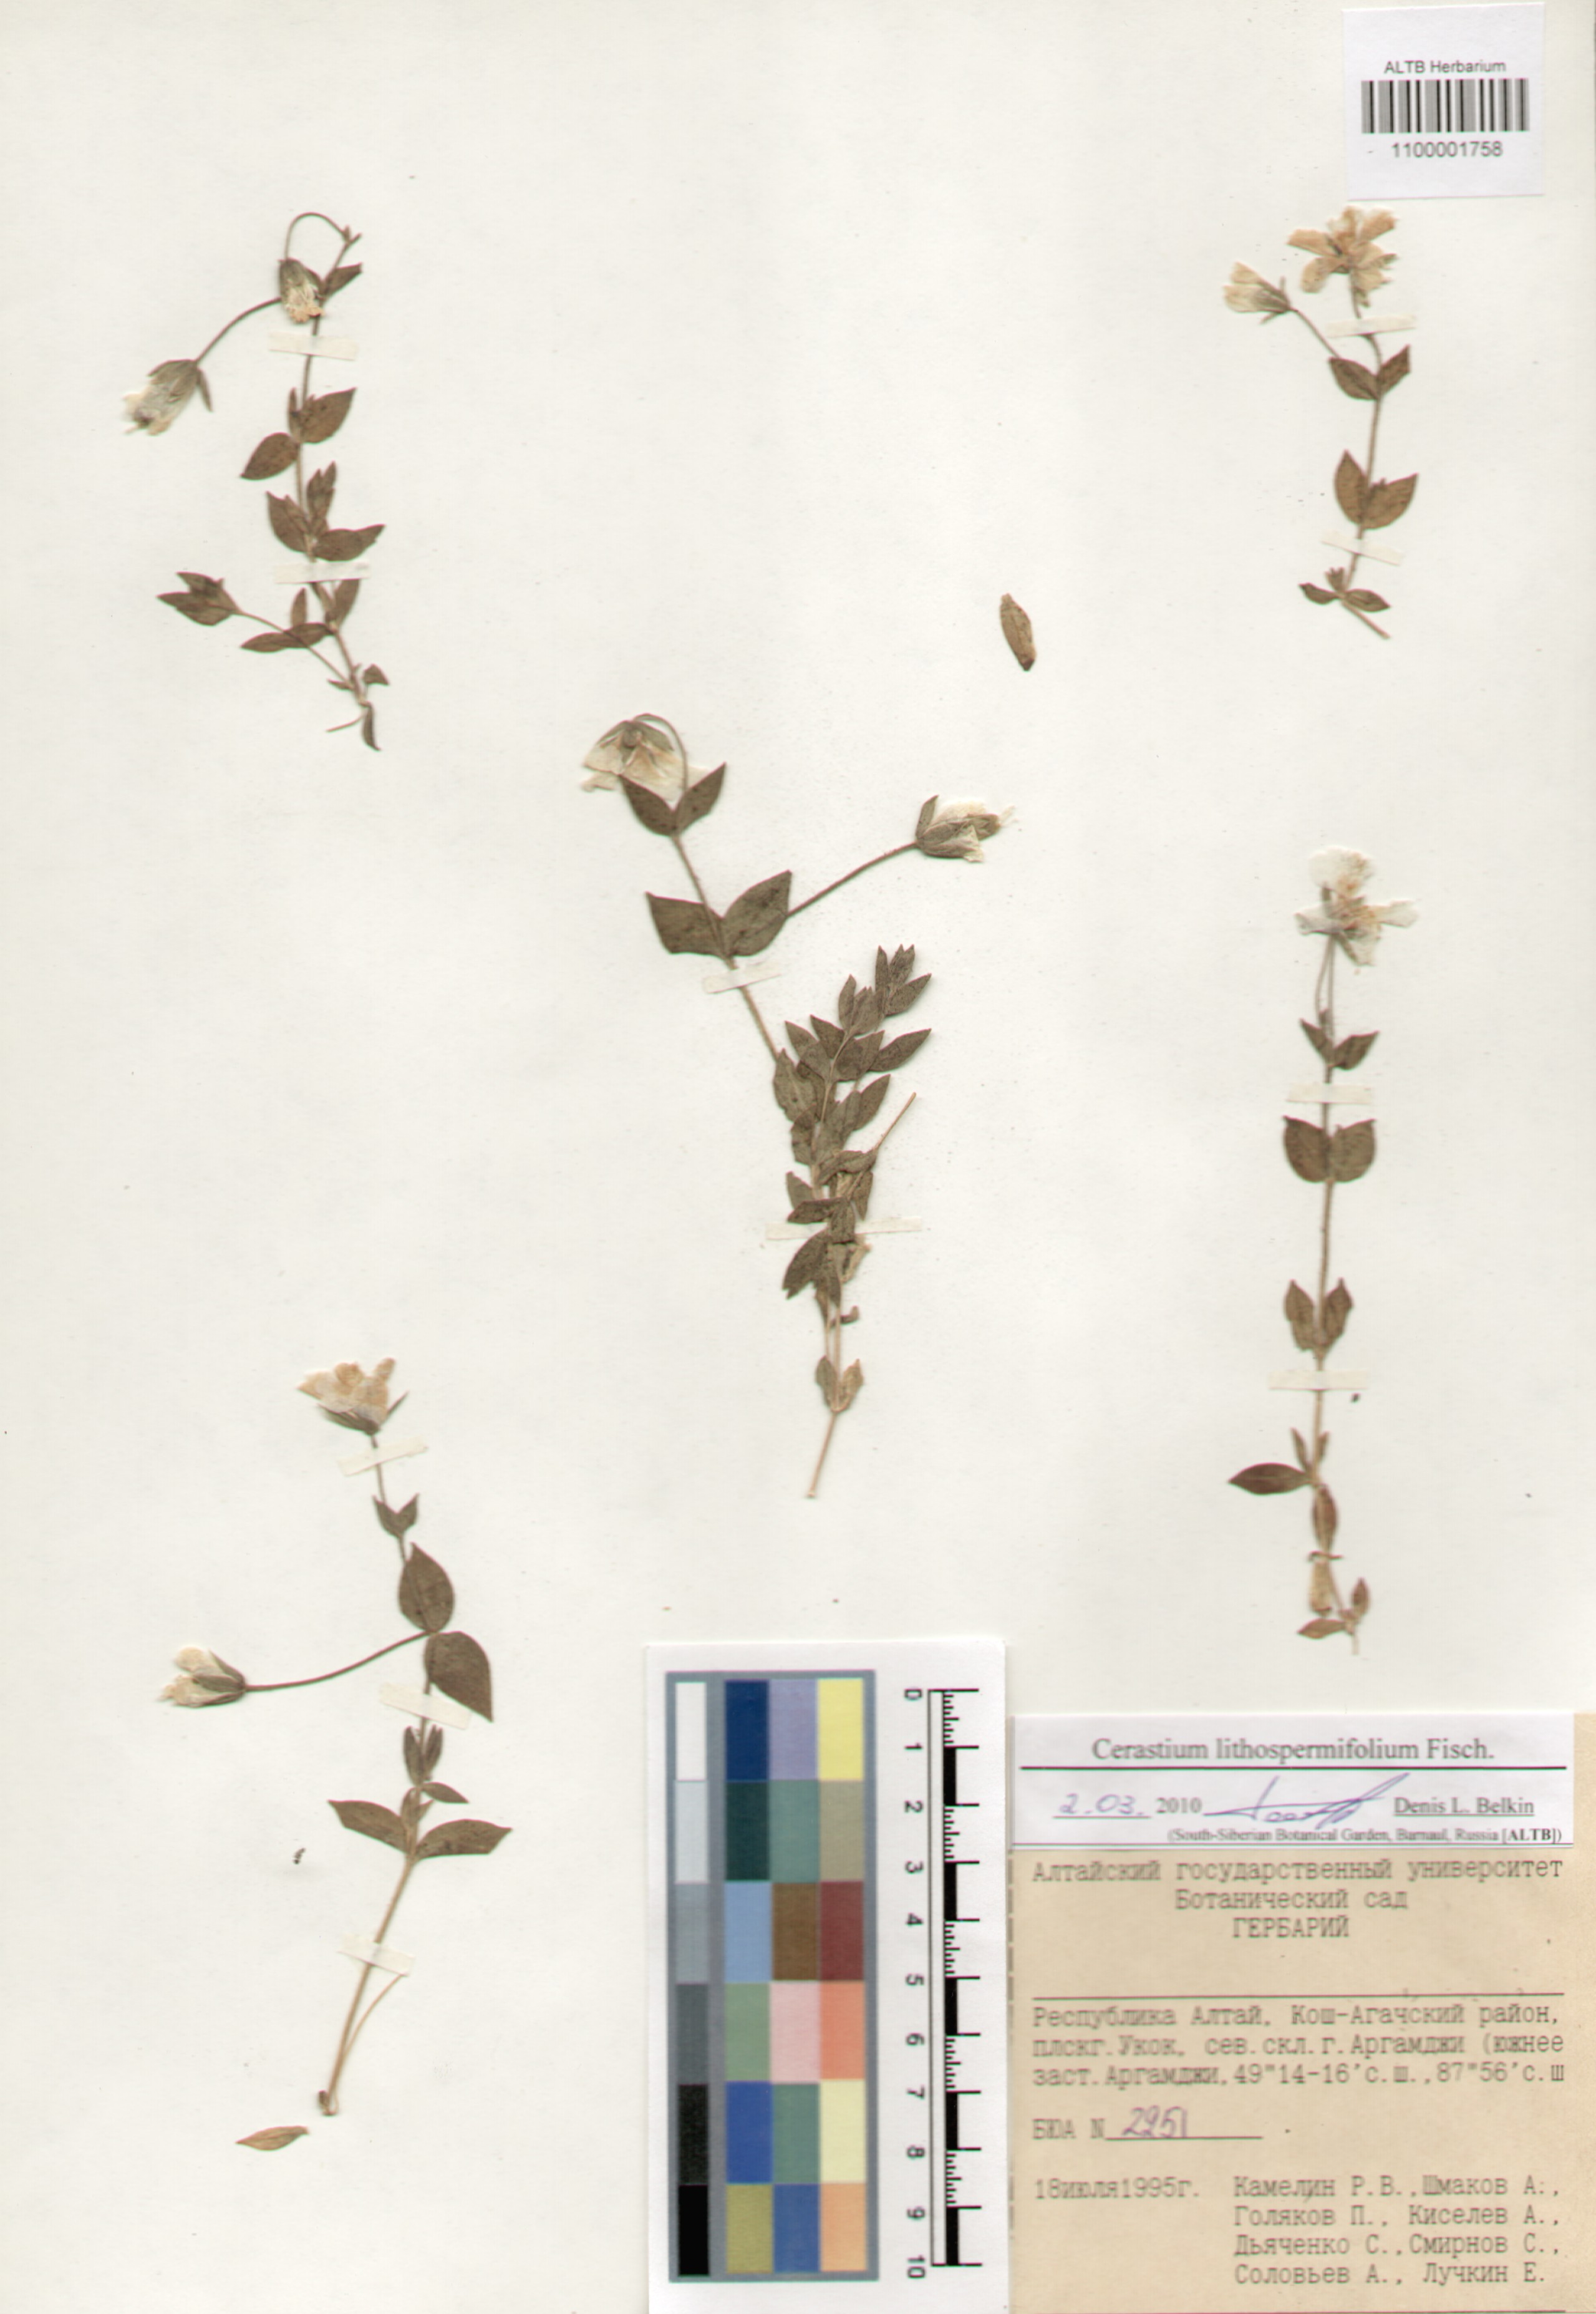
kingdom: Plantae
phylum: Tracheophyta
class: Magnoliopsida
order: Caryophyllales
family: Caryophyllaceae
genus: Cerastium
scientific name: Cerastium lithospermifolium
